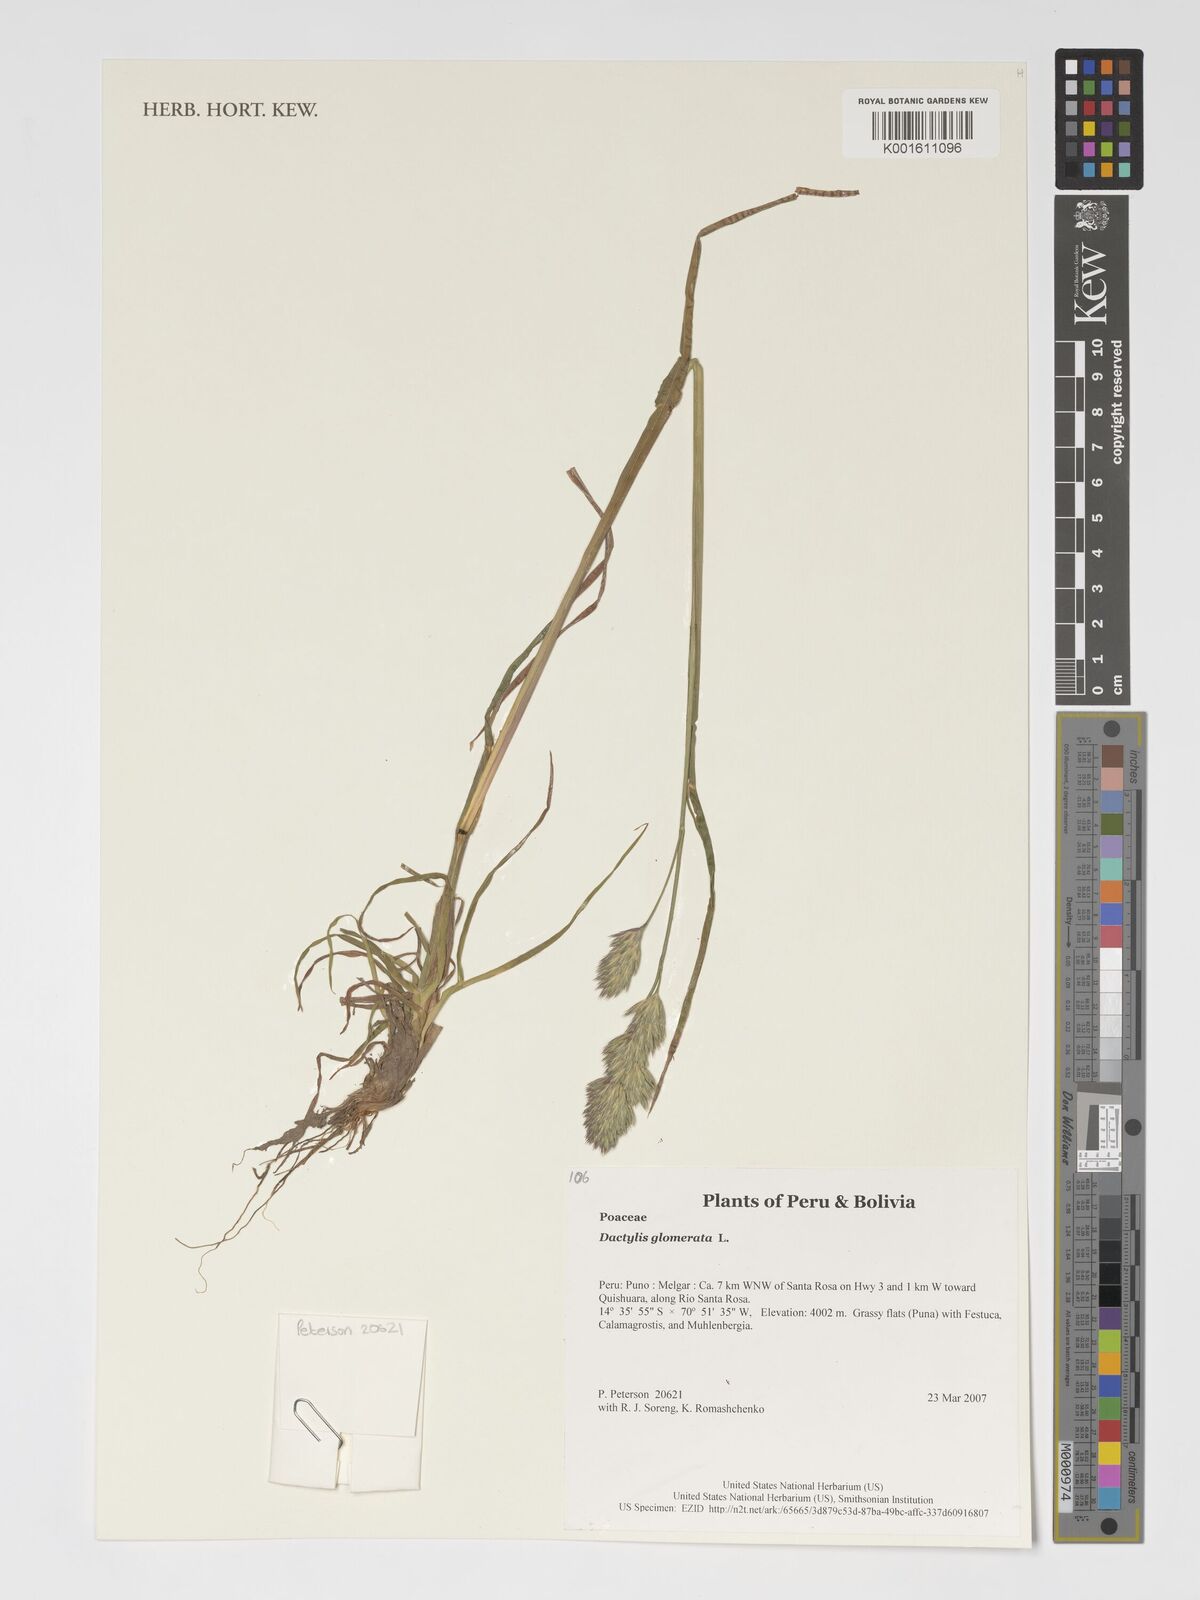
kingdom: Plantae
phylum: Tracheophyta
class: Liliopsida
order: Poales
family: Poaceae
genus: Dactylis
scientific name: Dactylis glomerata
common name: Orchardgrass
